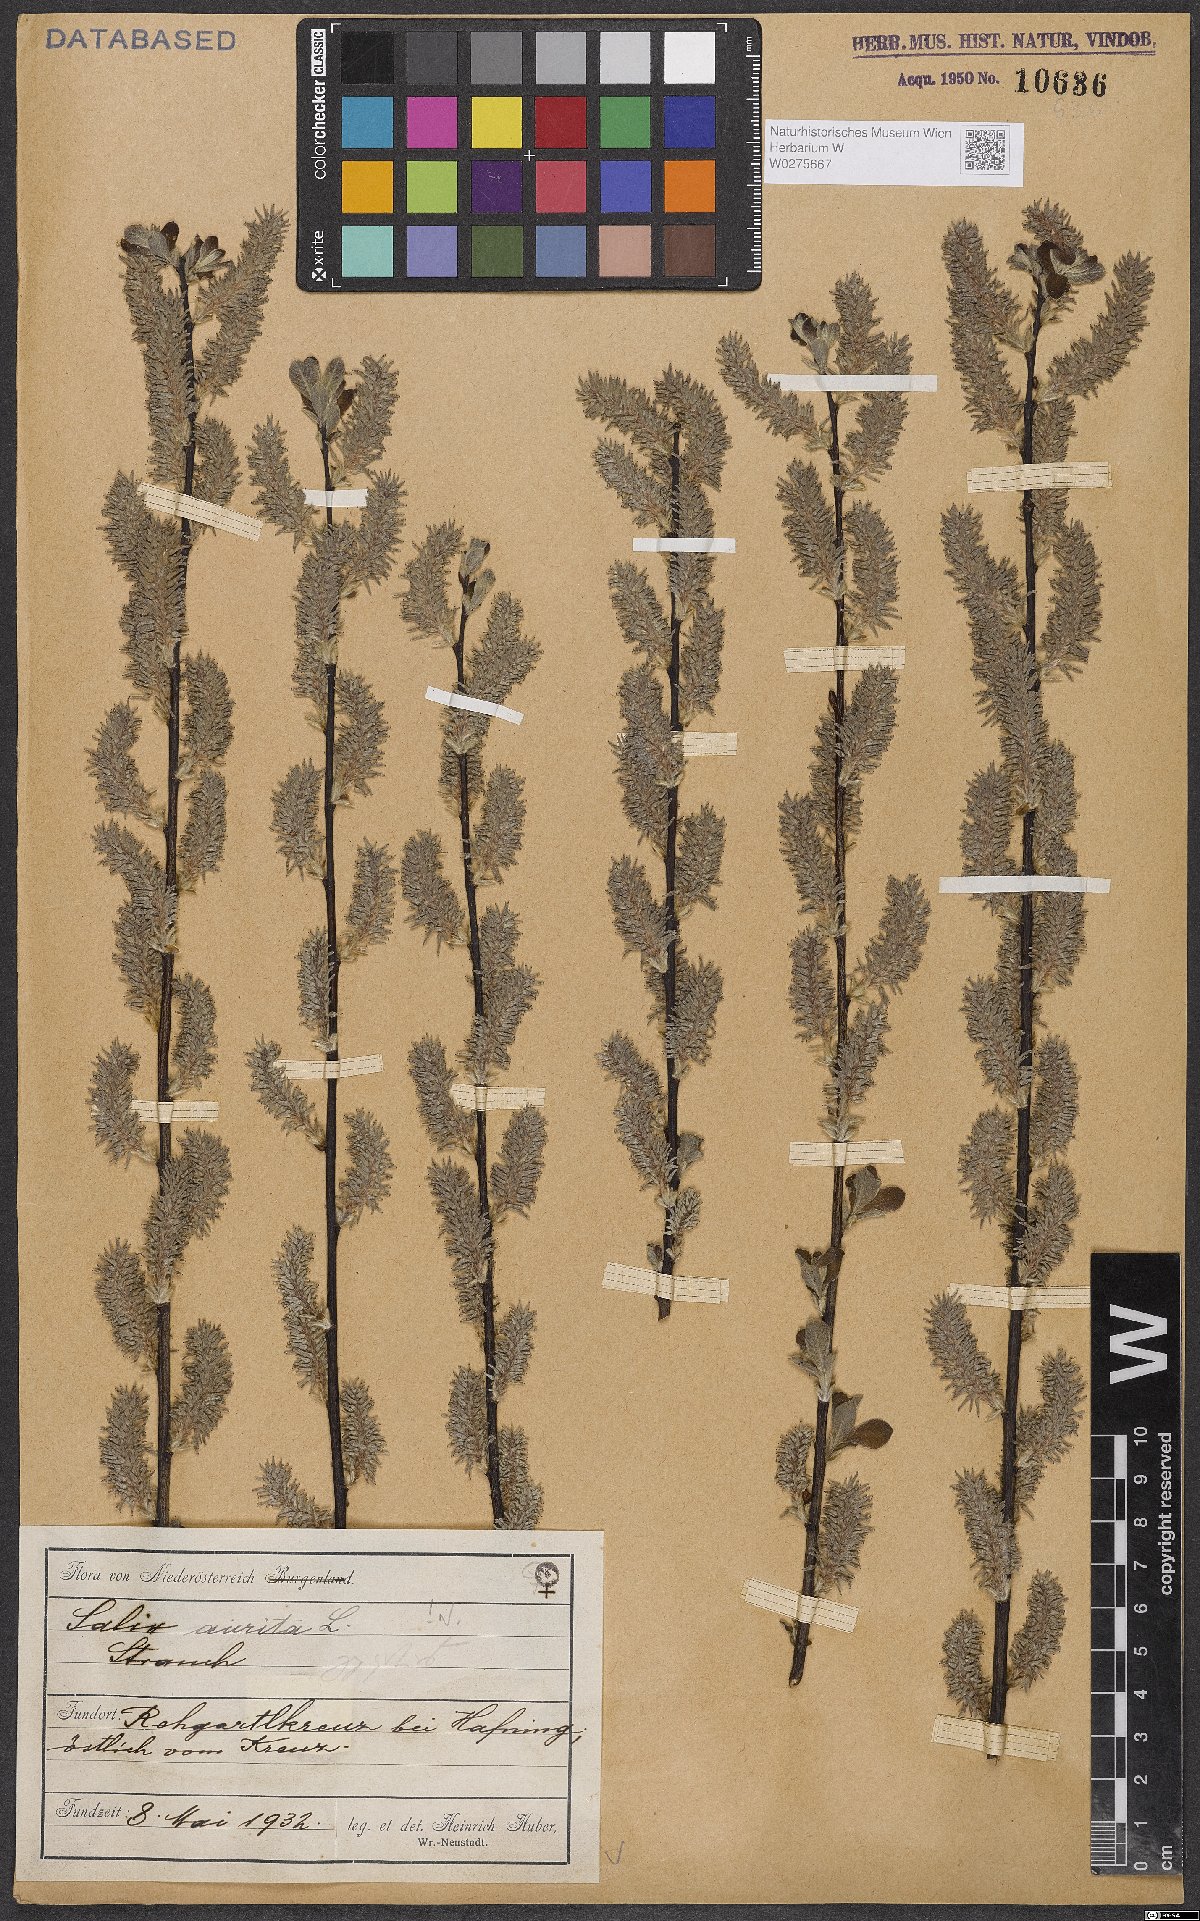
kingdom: Plantae
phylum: Tracheophyta
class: Magnoliopsida
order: Malpighiales
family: Salicaceae
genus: Salix
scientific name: Salix aurita
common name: Eared willow
